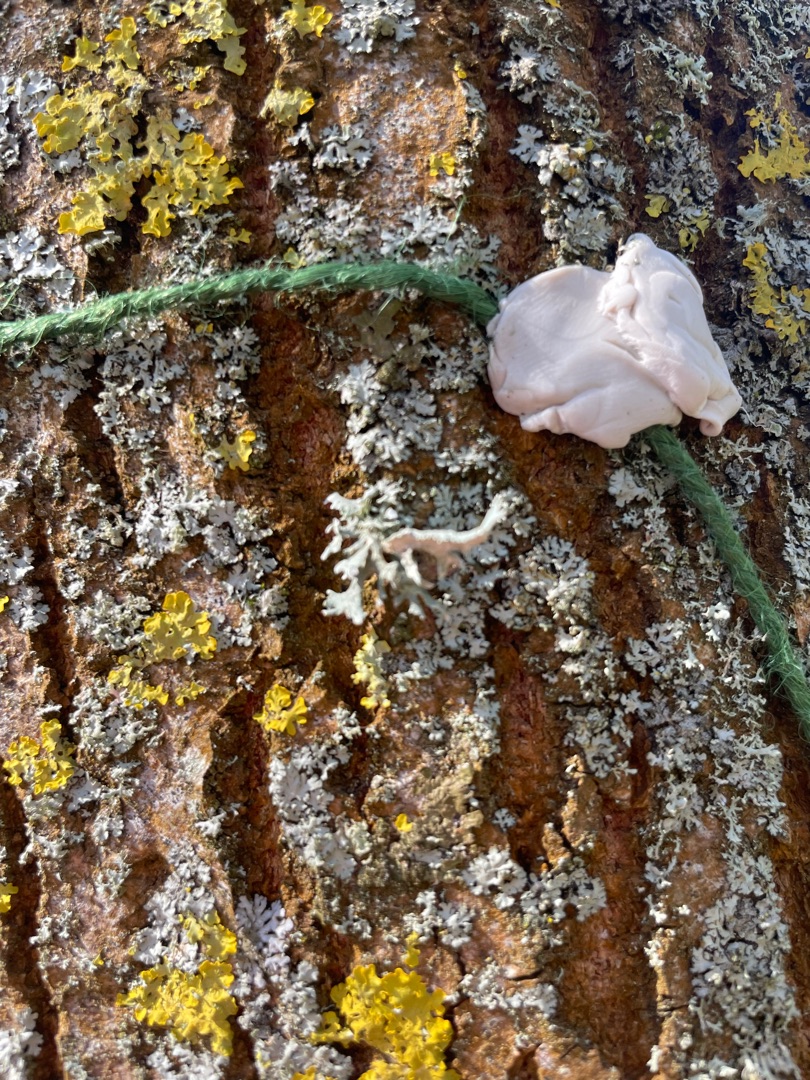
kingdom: Fungi
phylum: Ascomycota
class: Lecanoromycetes
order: Lecanorales
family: Parmeliaceae
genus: Evernia
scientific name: Evernia prunastri
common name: Almindelig slåenlav
